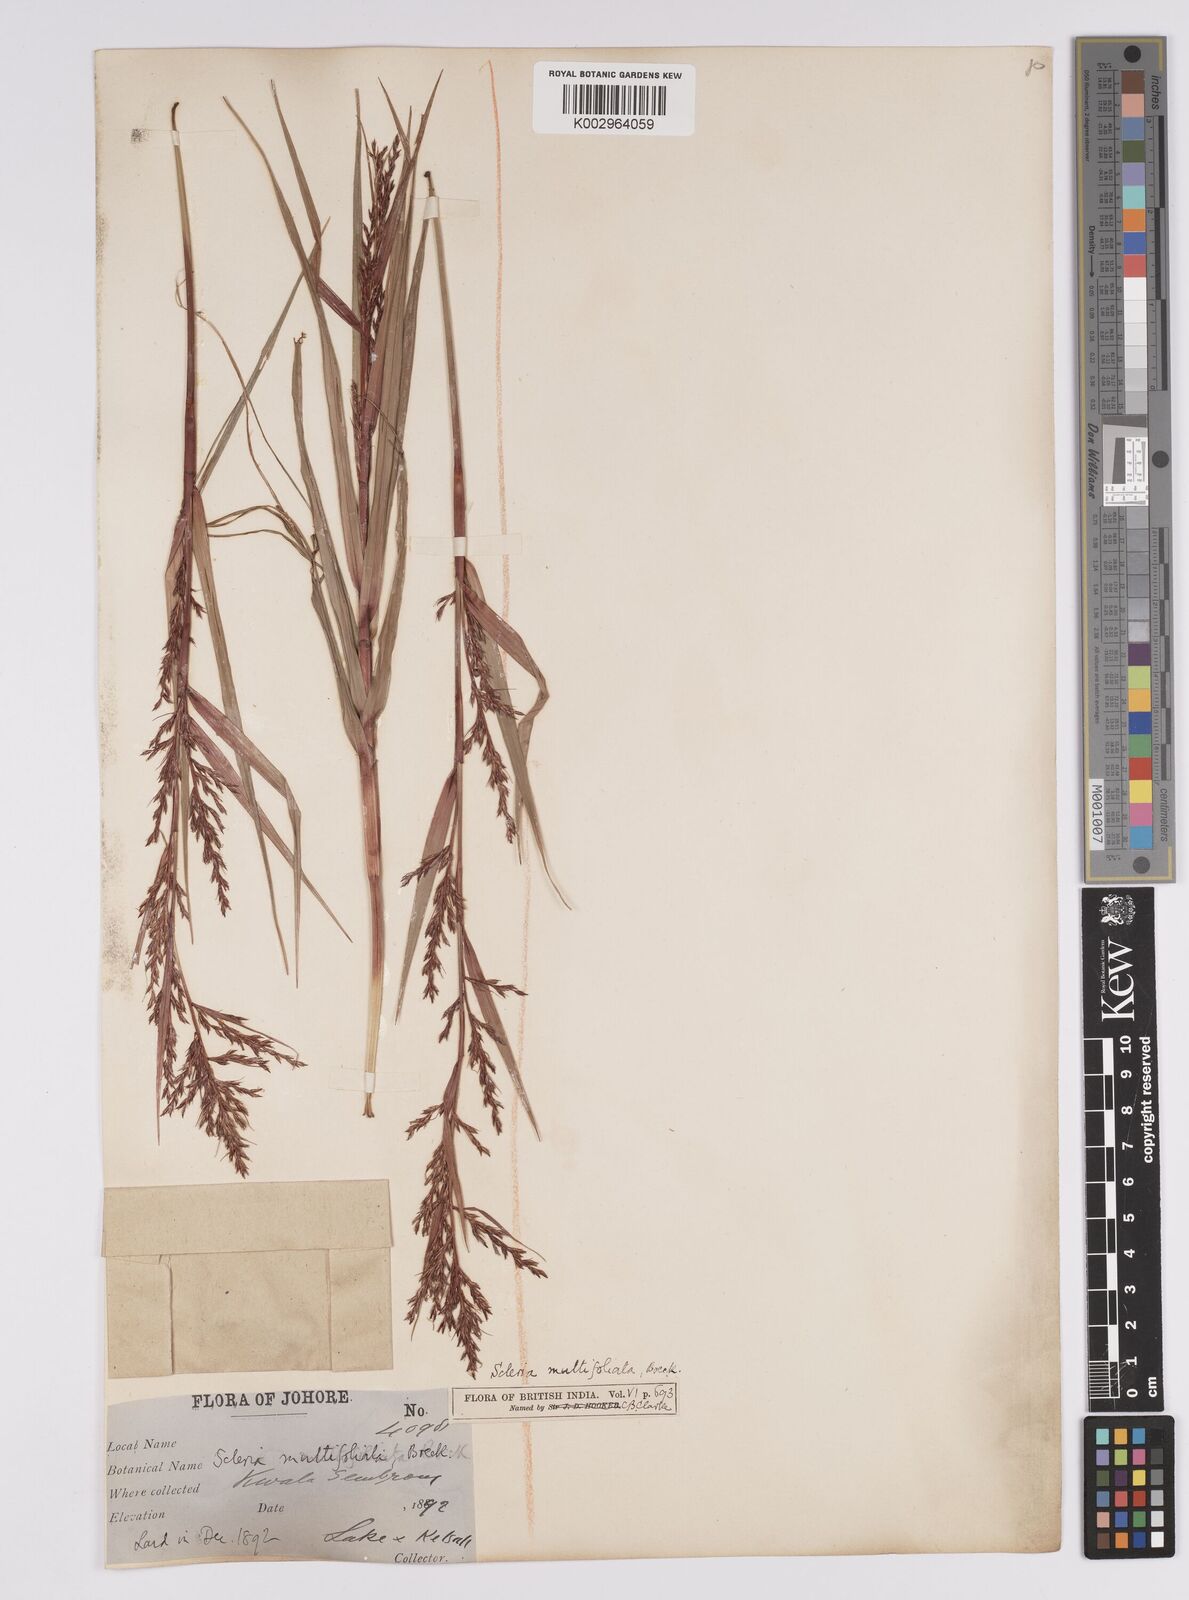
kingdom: Plantae
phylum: Tracheophyta
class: Liliopsida
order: Poales
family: Cyperaceae
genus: Scleria
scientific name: Scleria purpurascens
